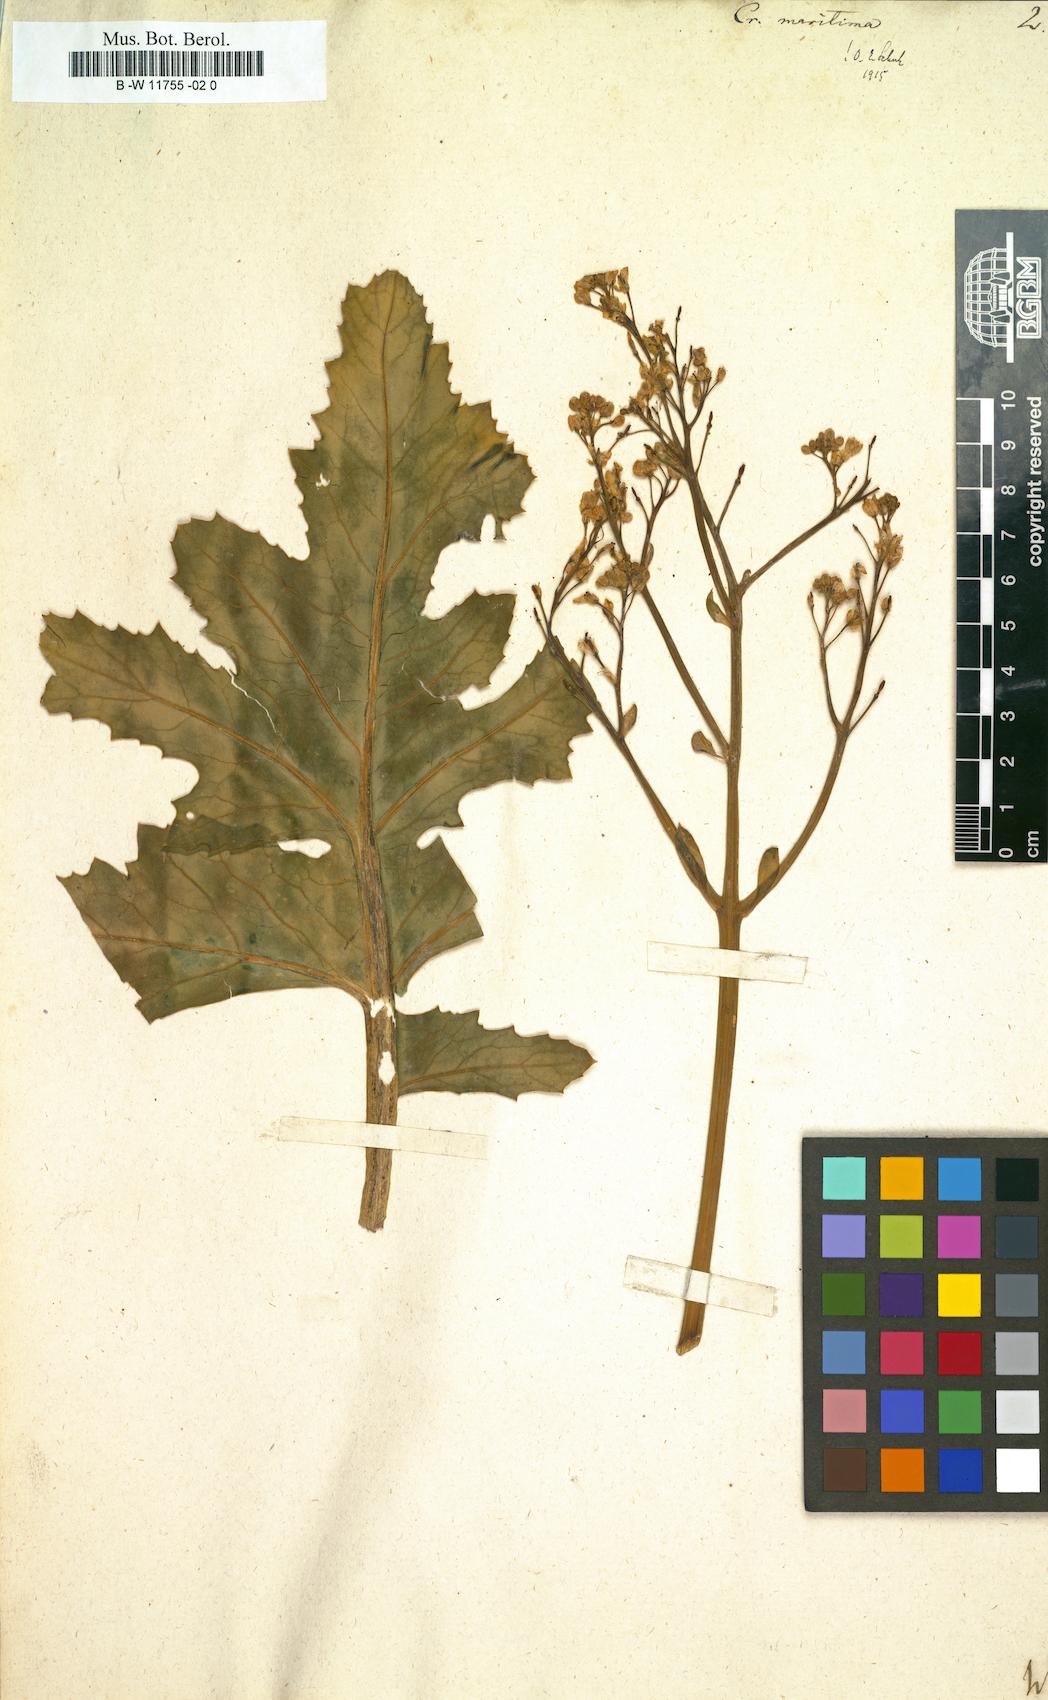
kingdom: Plantae
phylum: Tracheophyta
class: Magnoliopsida
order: Brassicales
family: Brassicaceae
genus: Crambe
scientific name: Crambe maritima
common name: Sea-kale
